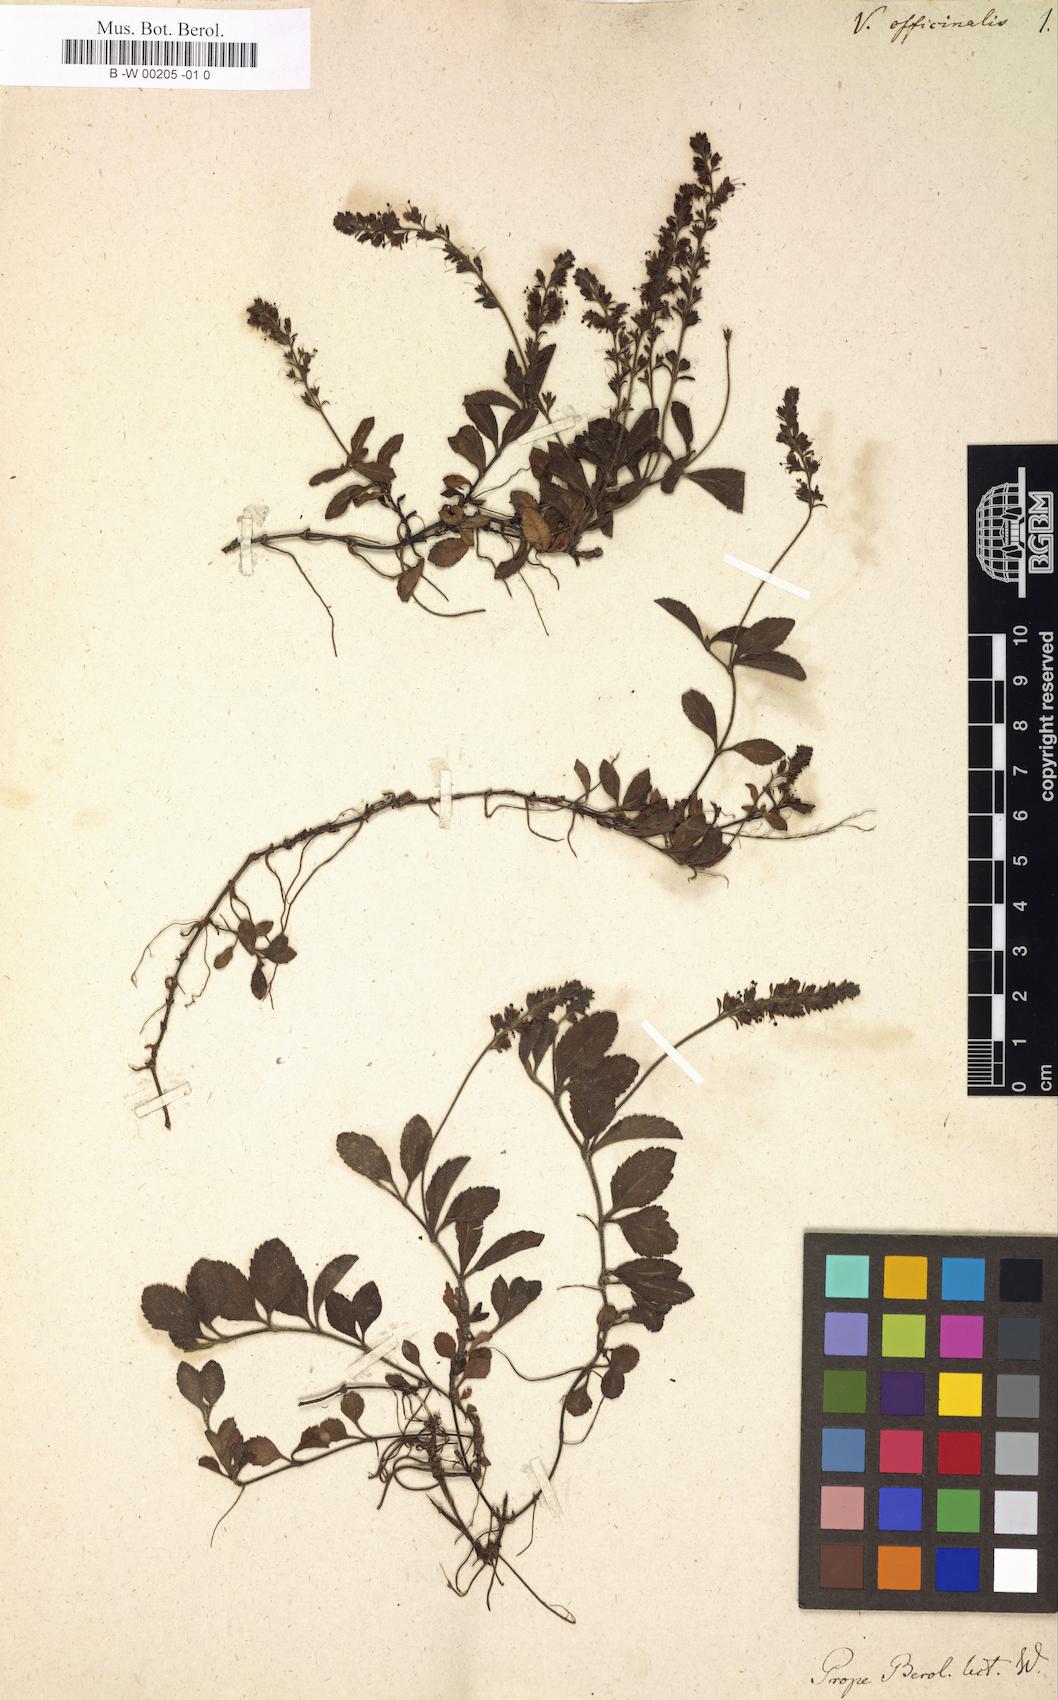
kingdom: Plantae
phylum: Tracheophyta
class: Magnoliopsida
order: Lamiales
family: Plantaginaceae
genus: Veronica
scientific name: Veronica officinalis
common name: Common speedwell
